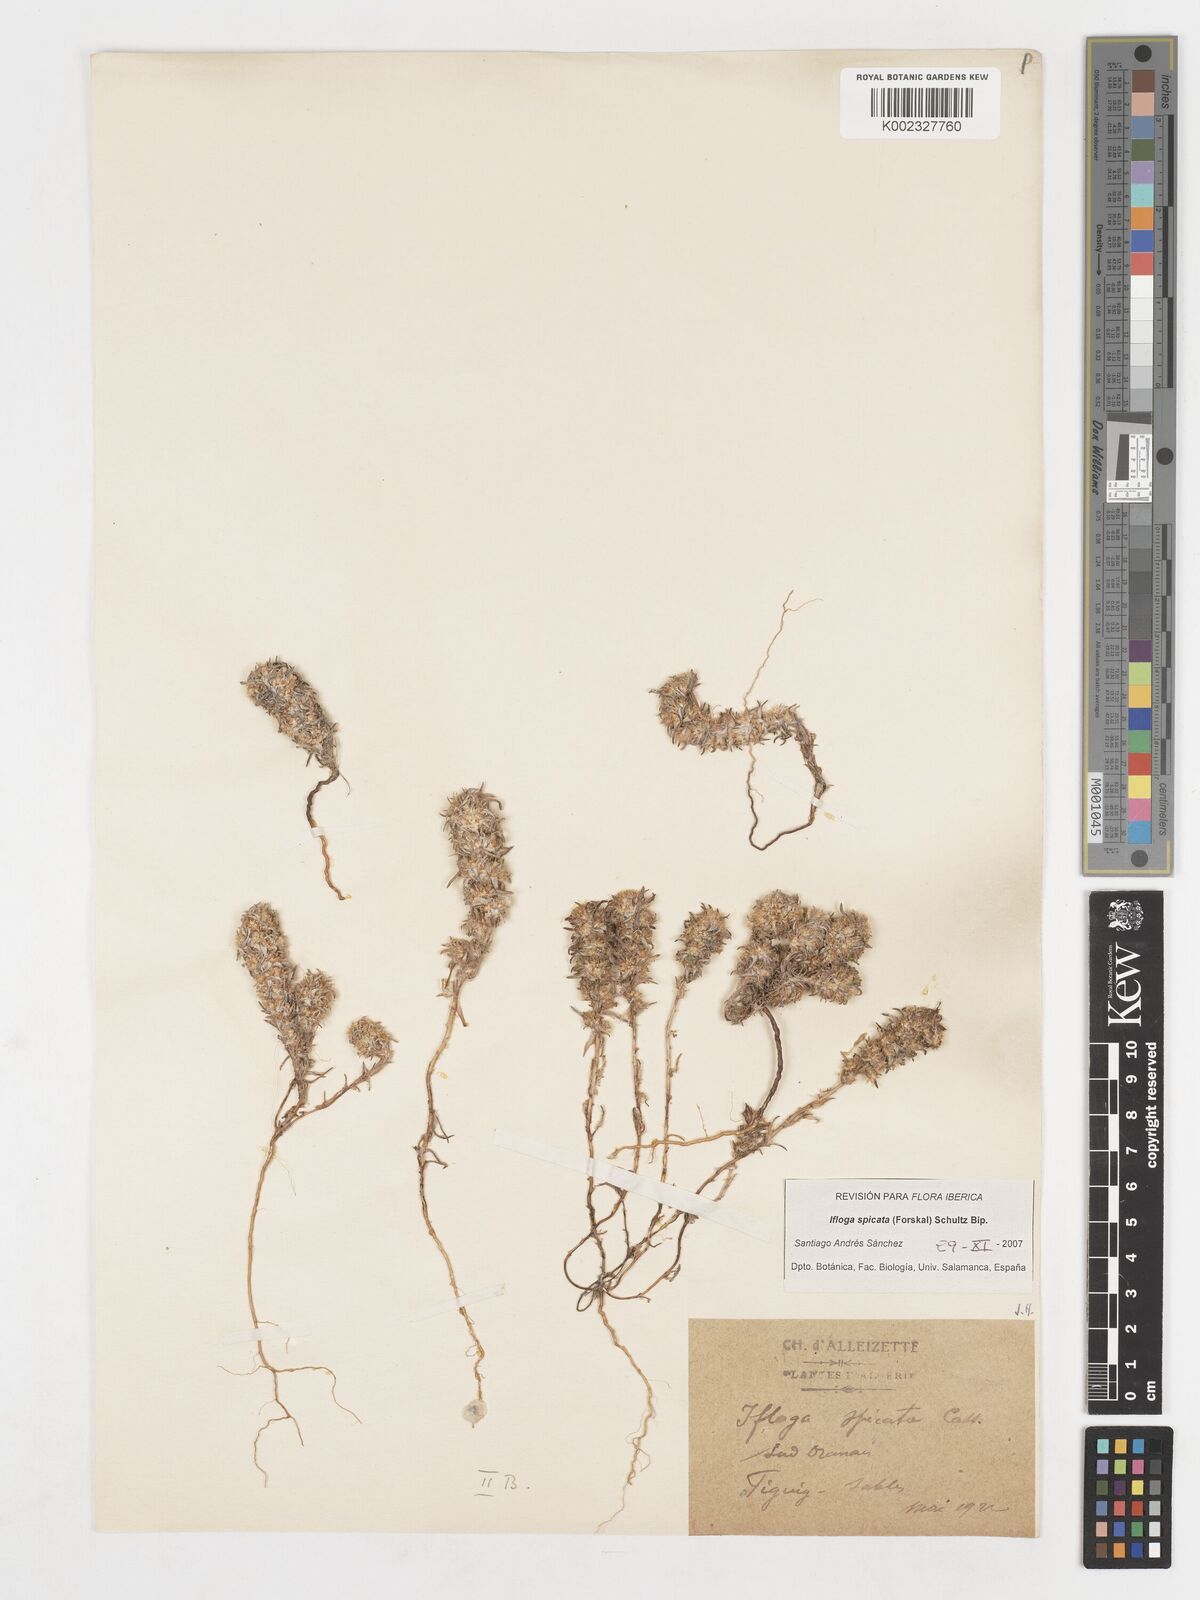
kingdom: Plantae
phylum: Tracheophyta
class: Magnoliopsida
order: Asterales
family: Asteraceae
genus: Ifloga
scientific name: Ifloga spicata
